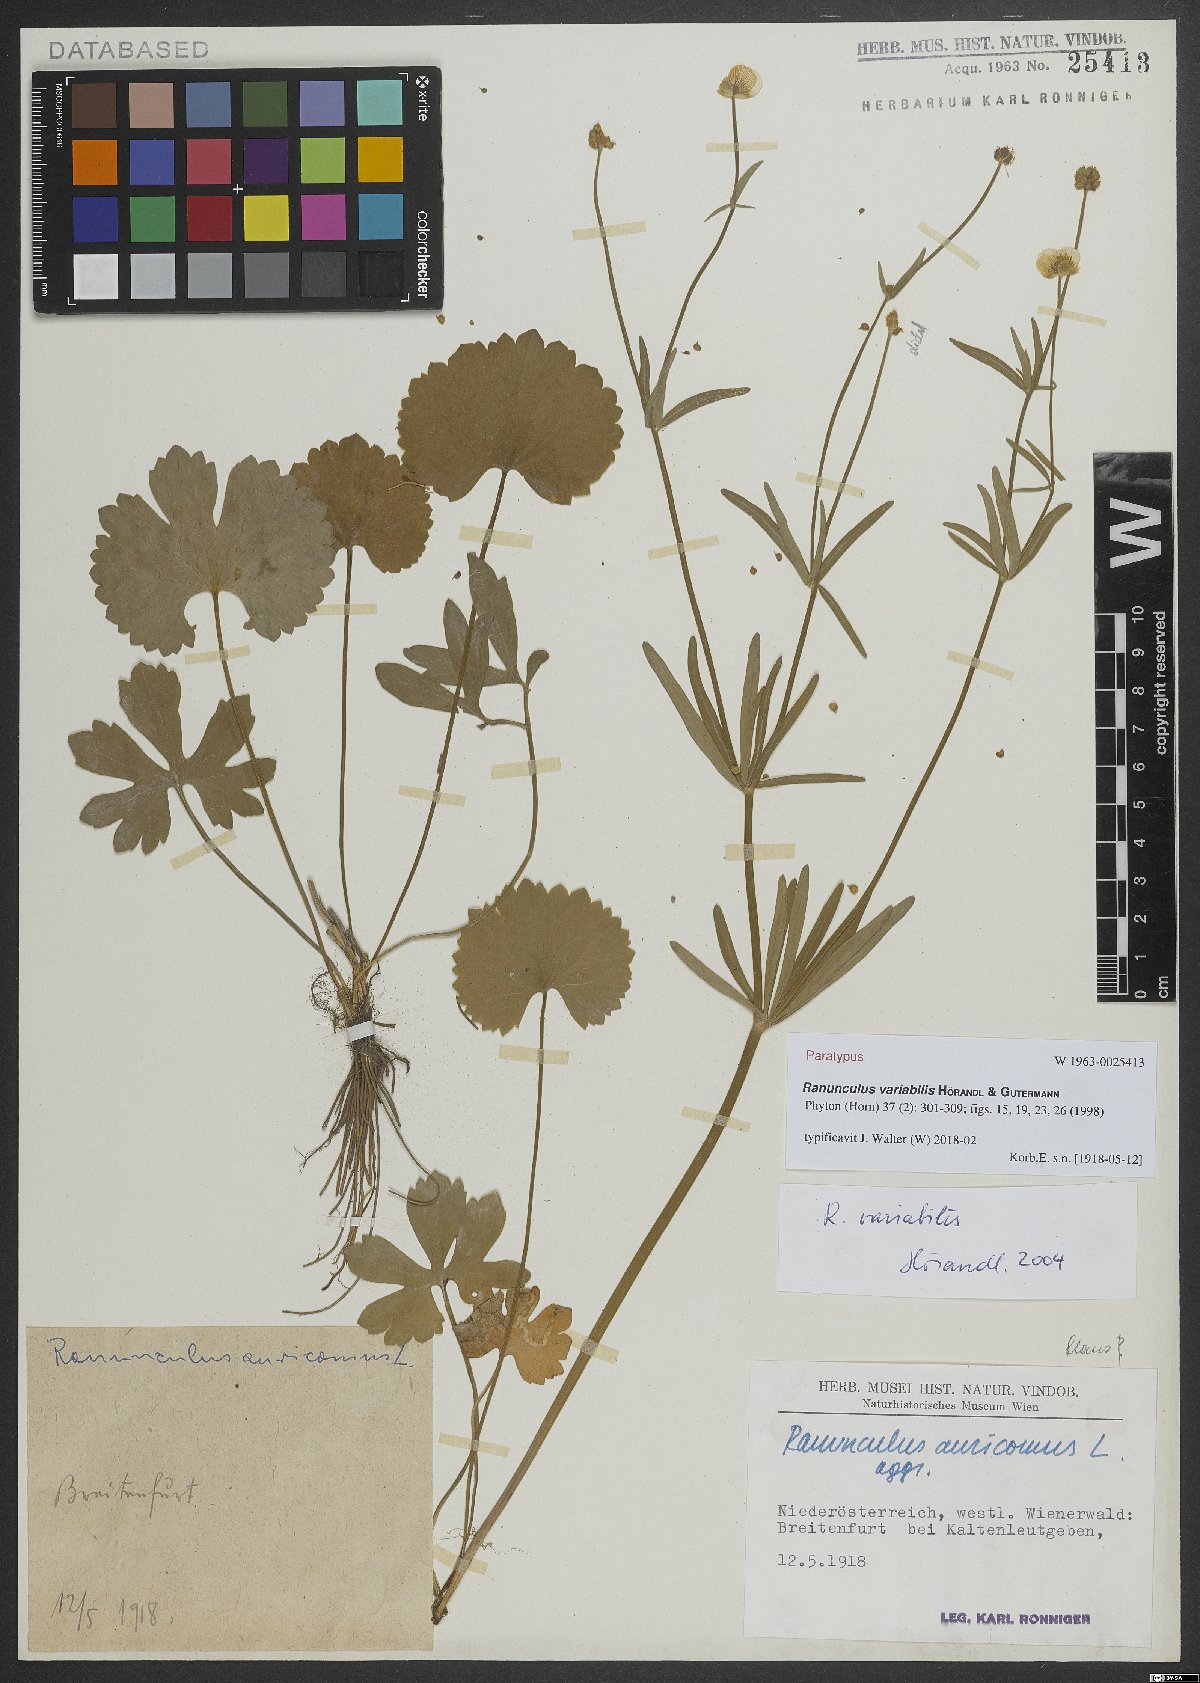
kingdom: Plantae
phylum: Tracheophyta
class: Magnoliopsida
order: Ranunculales
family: Ranunculaceae
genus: Ranunculus
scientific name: Ranunculus variabilis
